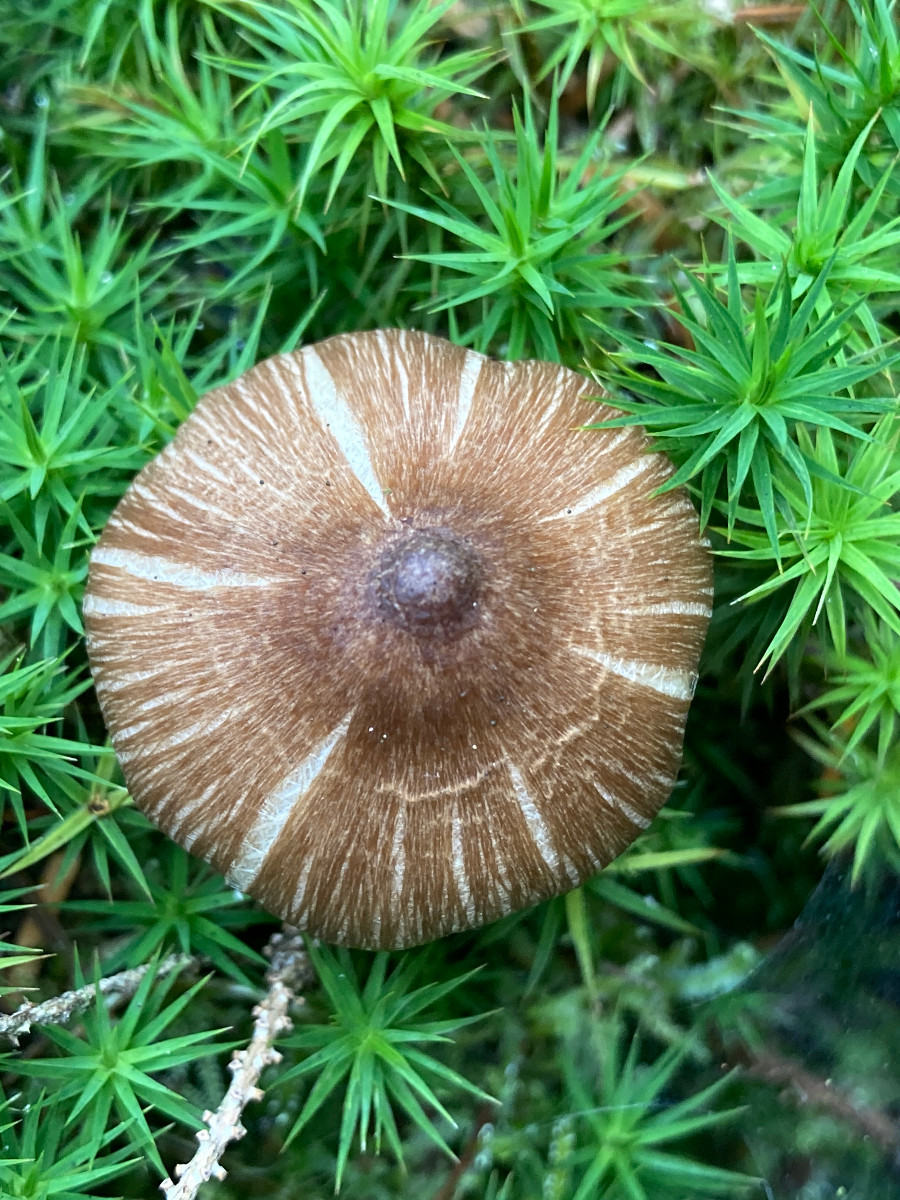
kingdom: Fungi
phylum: Basidiomycota
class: Agaricomycetes
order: Agaricales
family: Inocybaceae
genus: Inocybe
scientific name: Inocybe
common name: trævlhat
